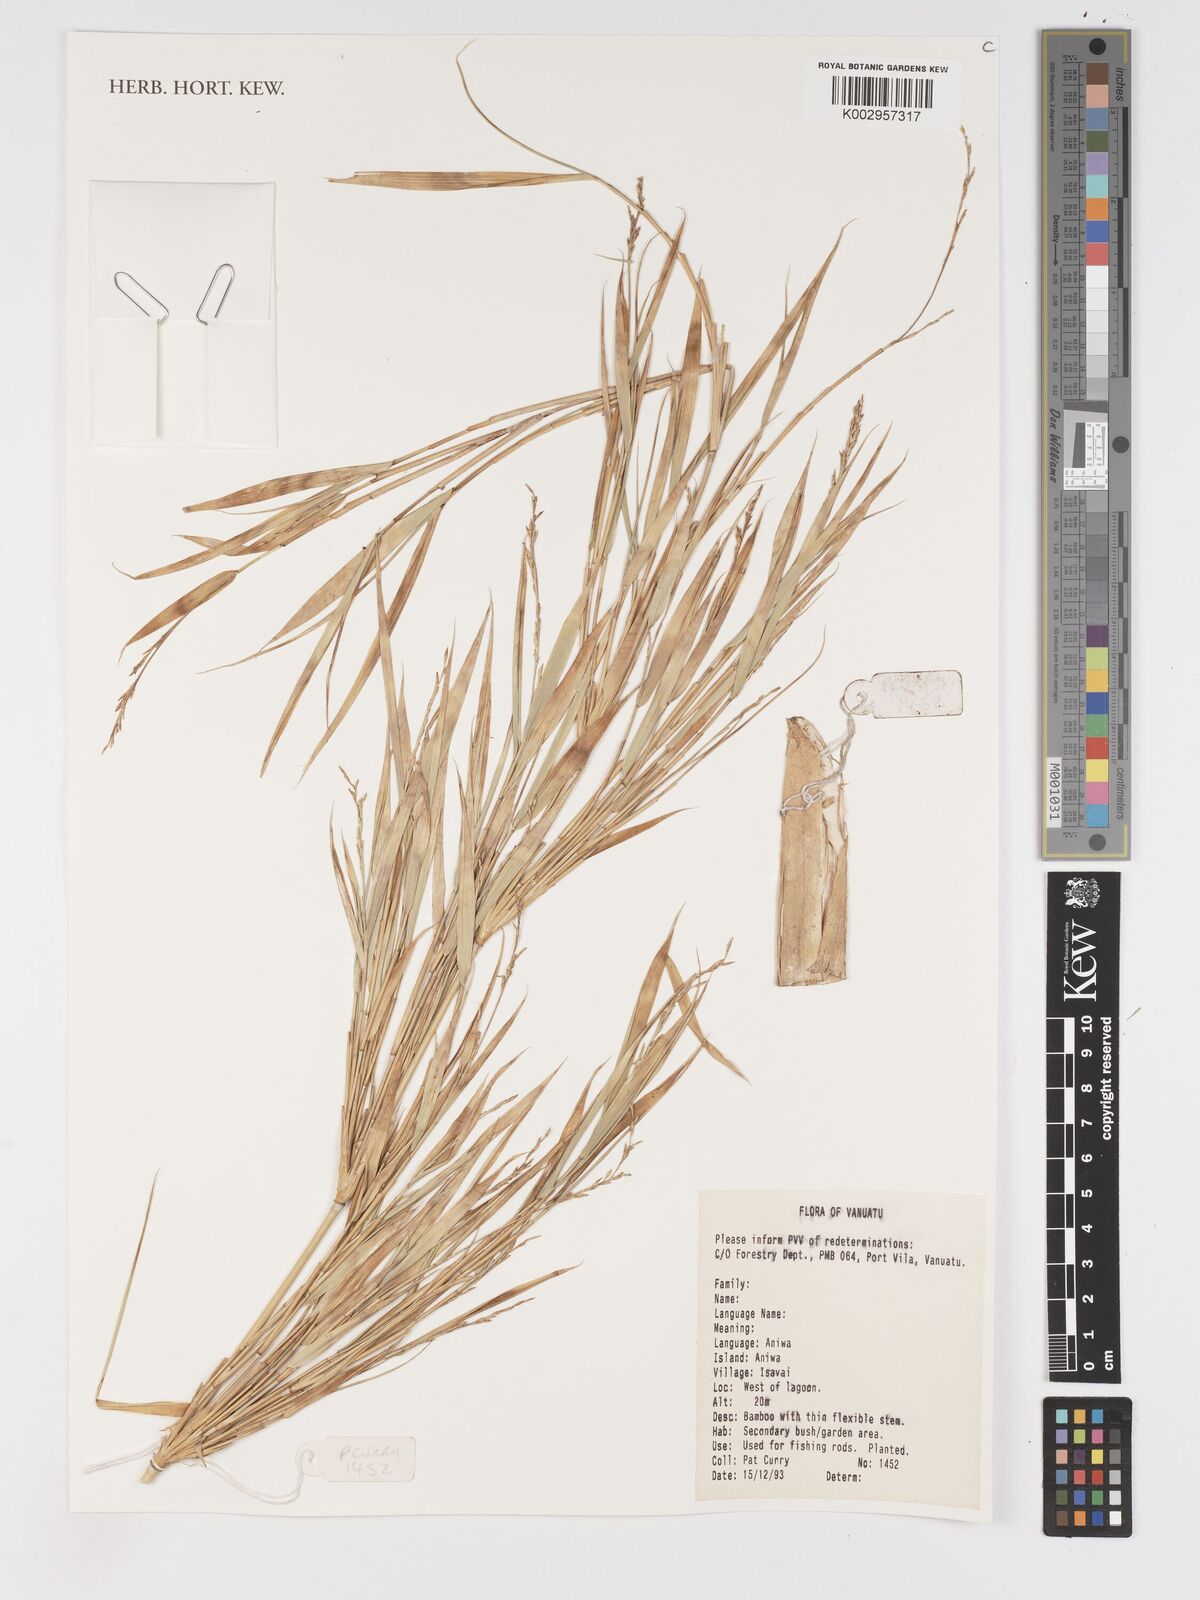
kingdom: Plantae
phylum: Tracheophyta
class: Liliopsida
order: Poales
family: Poaceae
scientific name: Poaceae
